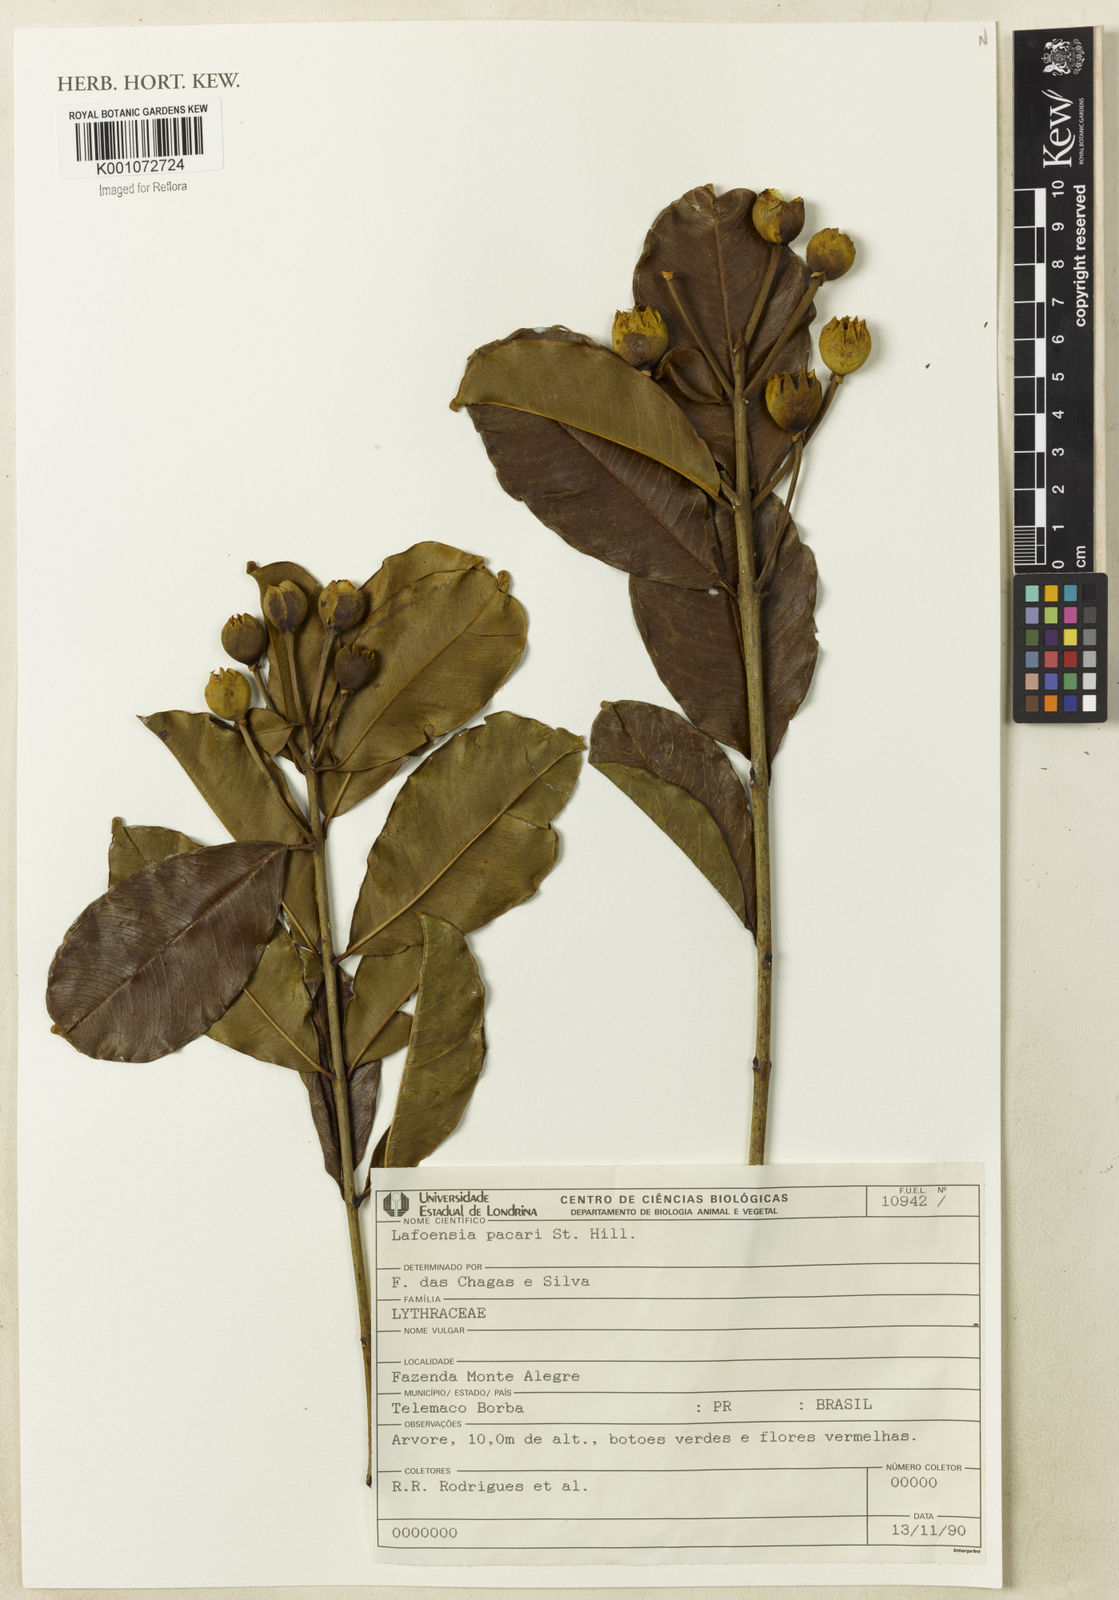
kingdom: Plantae
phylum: Tracheophyta
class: Magnoliopsida
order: Myrtales
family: Lythraceae
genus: Lafoensia
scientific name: Lafoensia pacari
